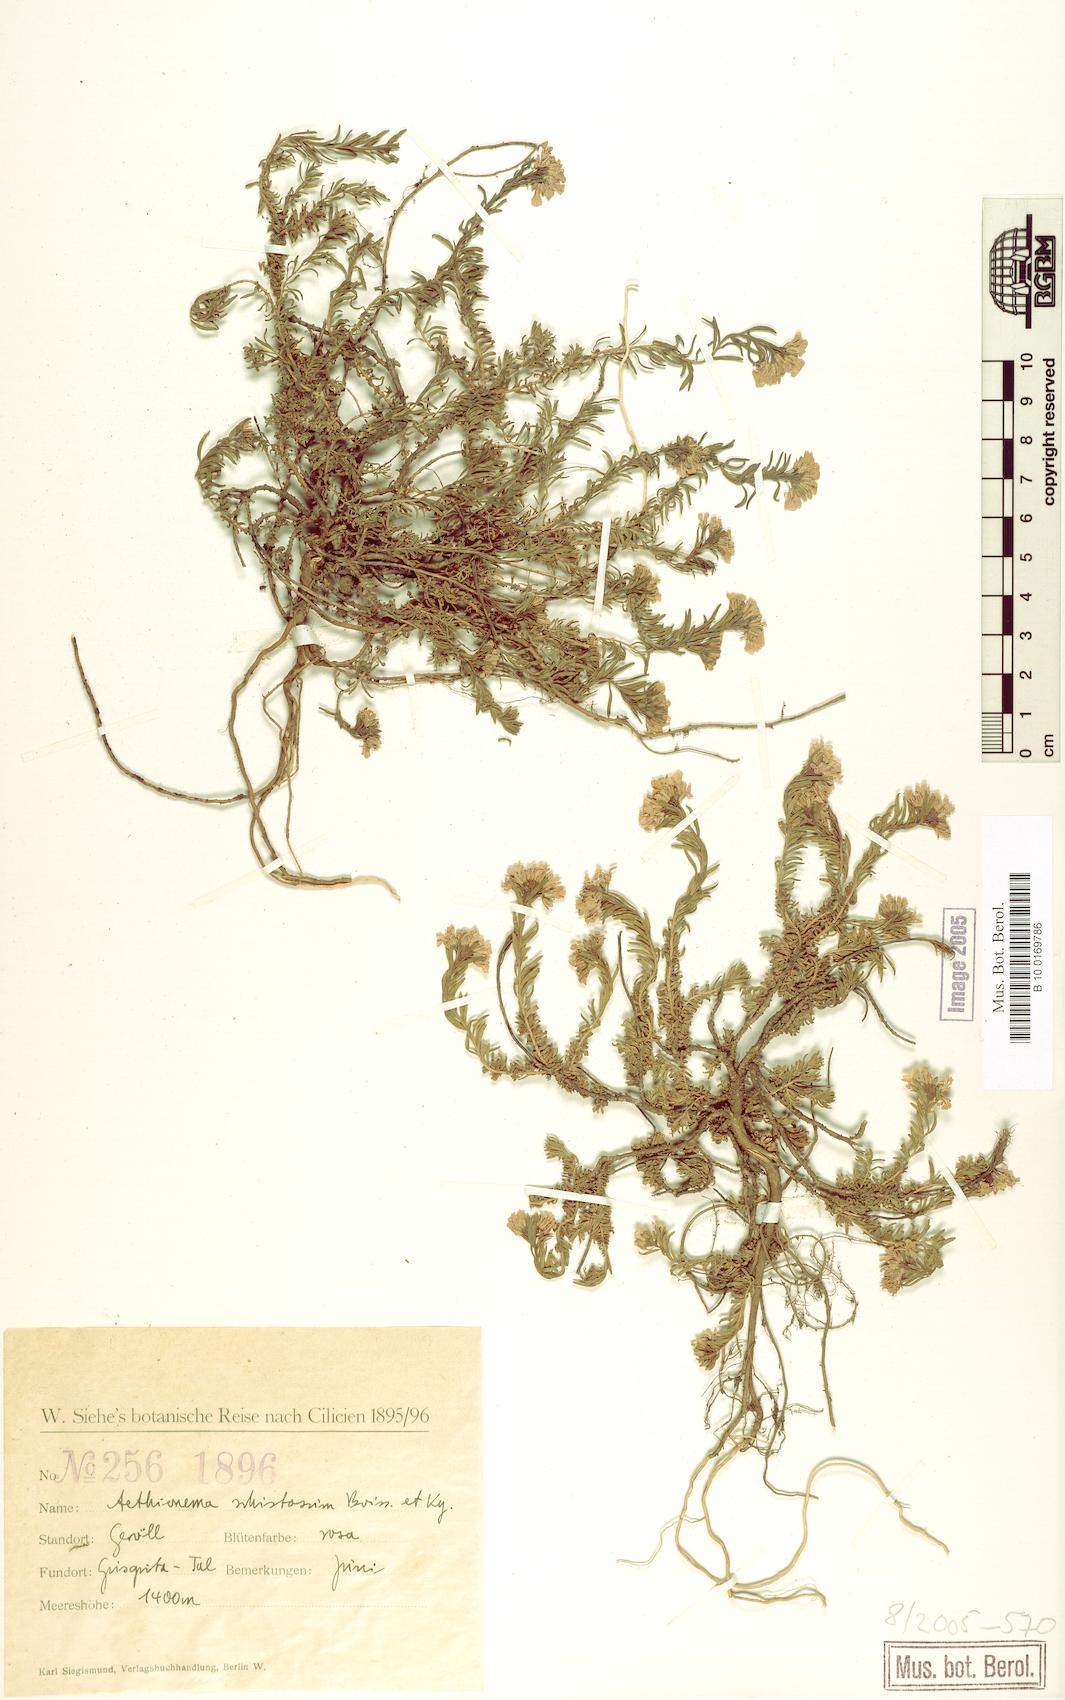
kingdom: Plantae
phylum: Tracheophyta
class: Magnoliopsida
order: Brassicales
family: Brassicaceae
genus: Aethionema
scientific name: Aethionema schistosum
